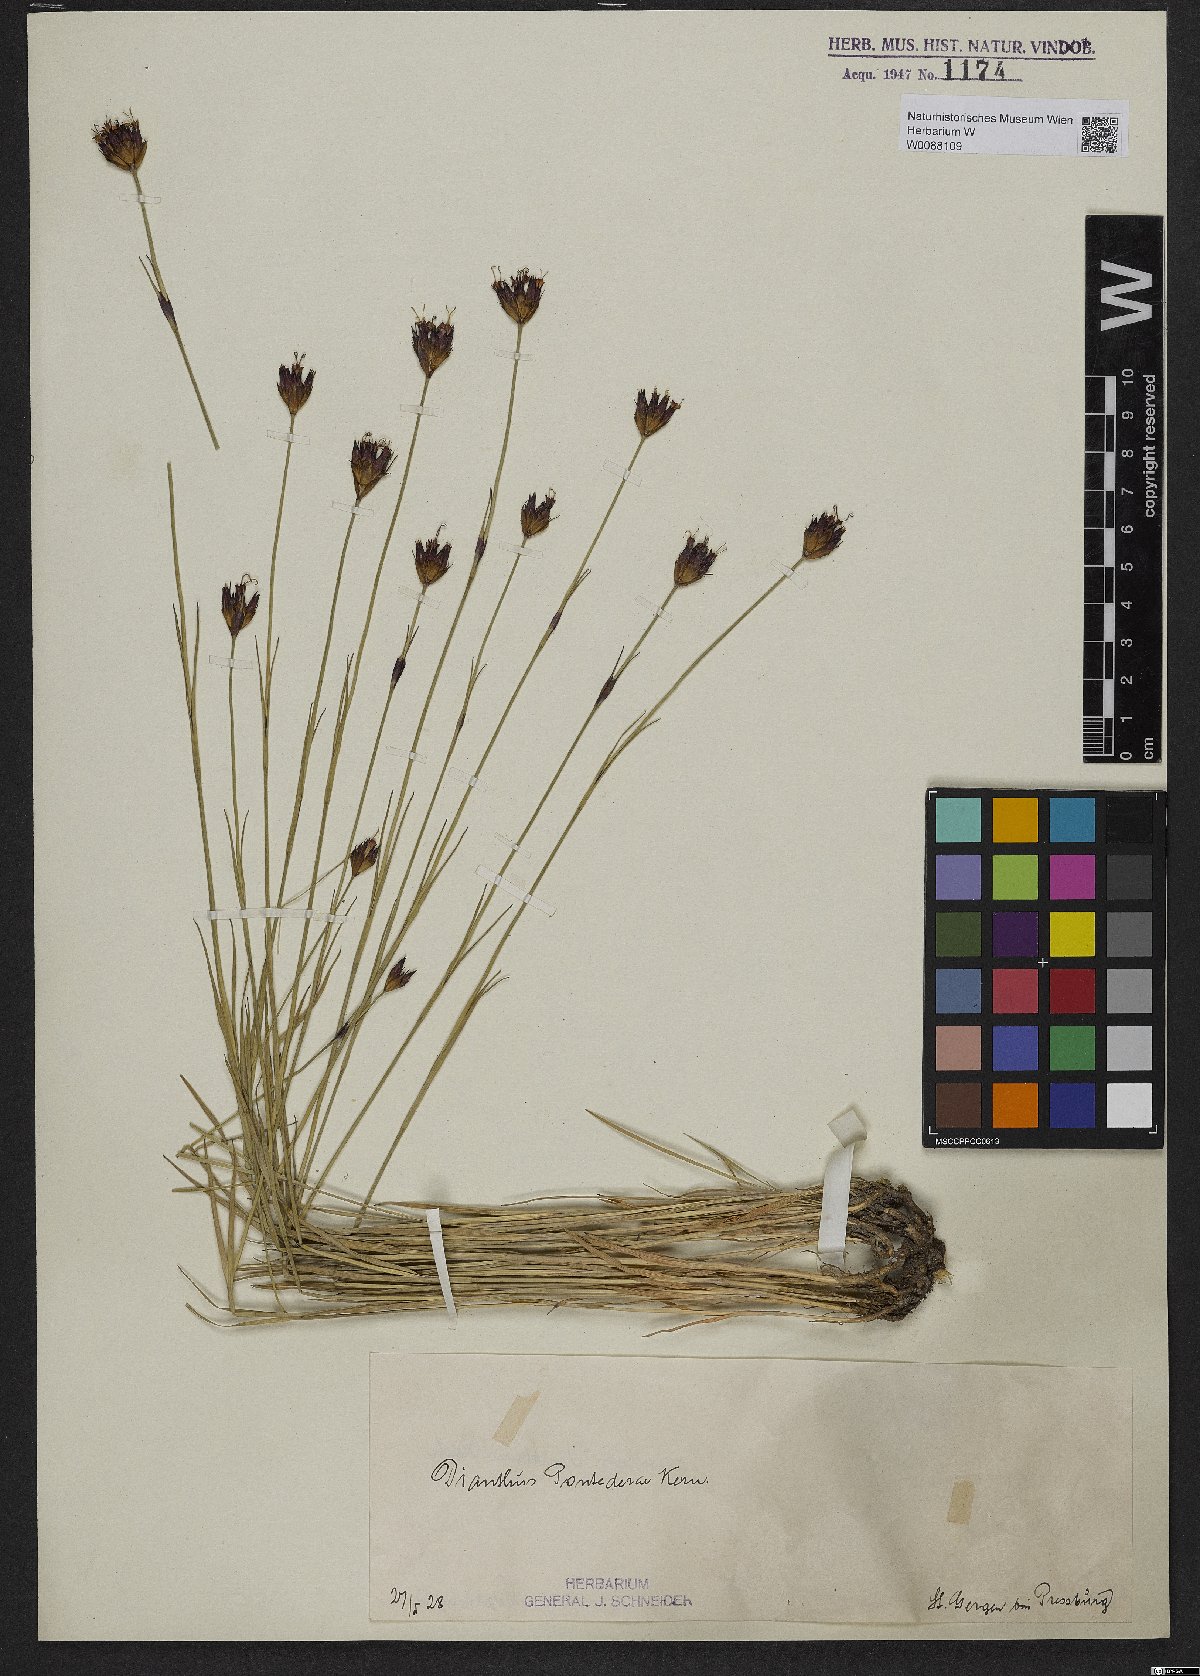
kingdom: Plantae
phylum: Tracheophyta
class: Magnoliopsida
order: Caryophyllales
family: Caryophyllaceae
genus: Dianthus
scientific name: Dianthus pontederae
